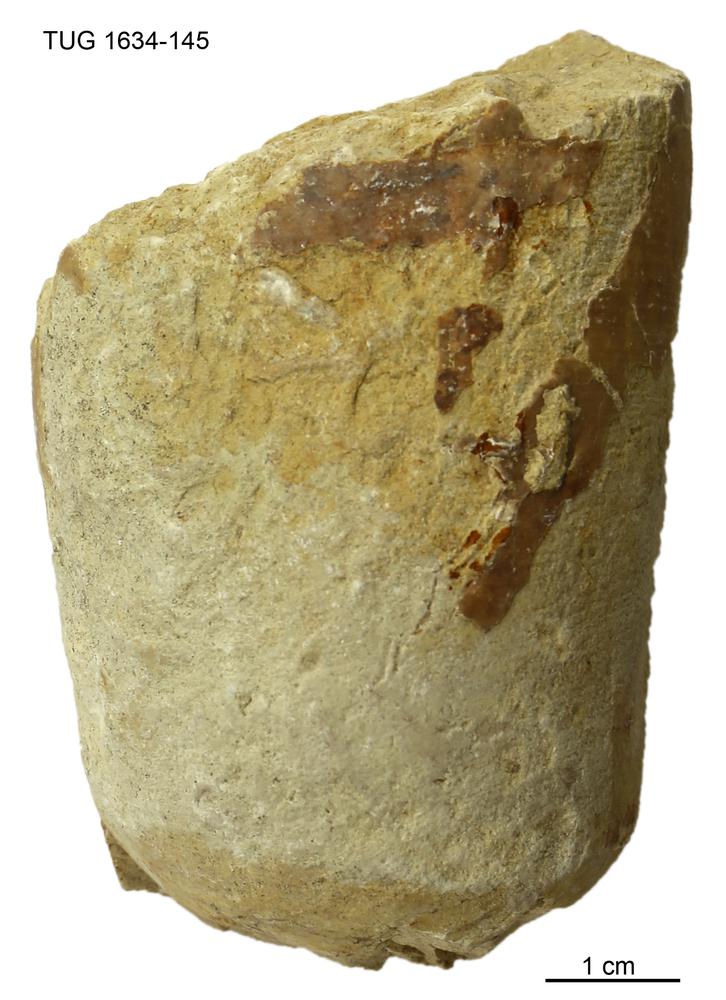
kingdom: Animalia
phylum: Mollusca
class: Cephalopoda
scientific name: Cephalopoda
